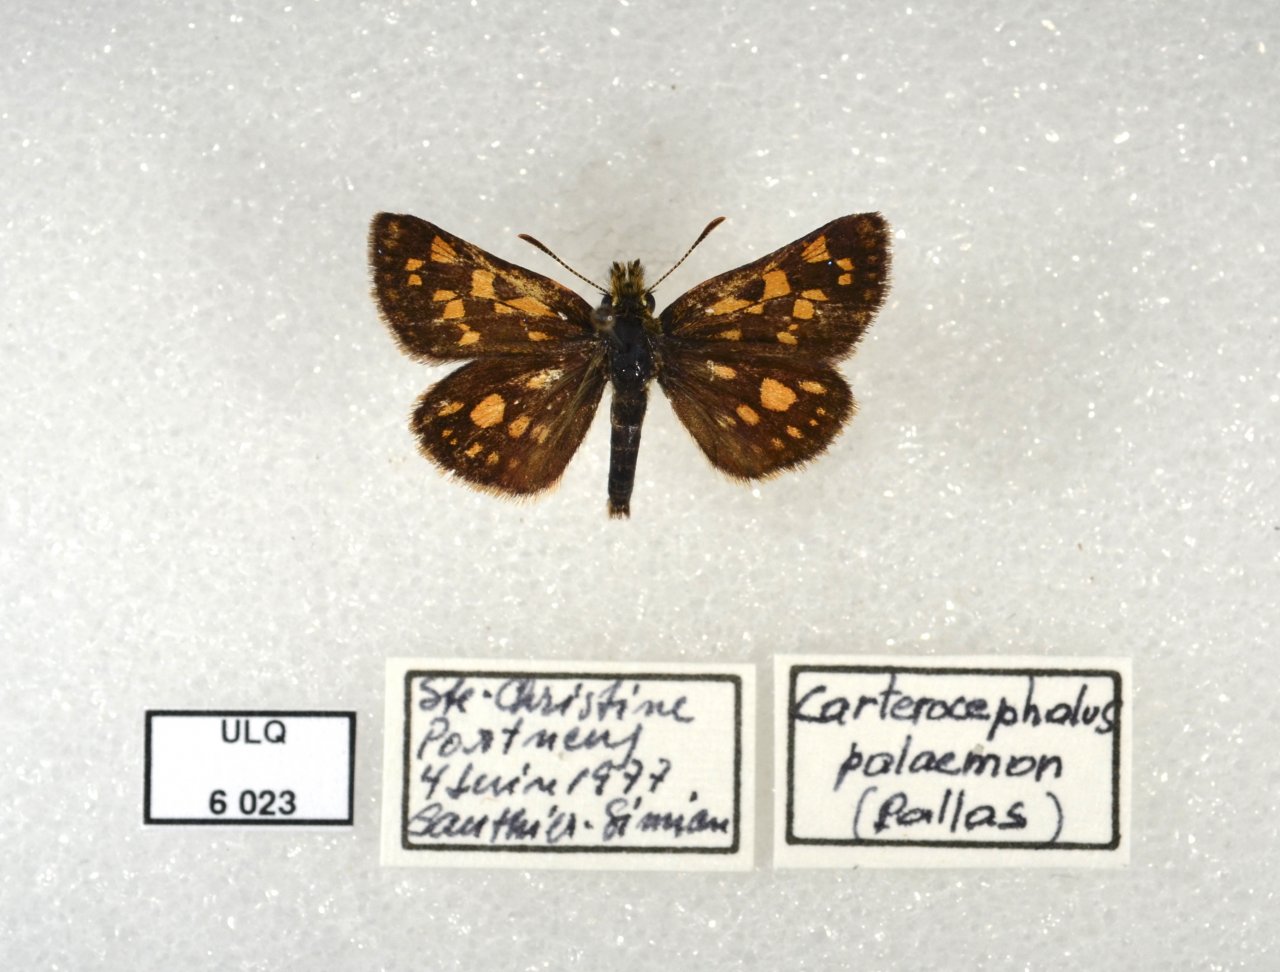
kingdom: Animalia
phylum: Arthropoda
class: Insecta
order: Lepidoptera
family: Hesperiidae
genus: Carterocephalus
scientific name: Carterocephalus palaemon
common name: Chequered Skipper
